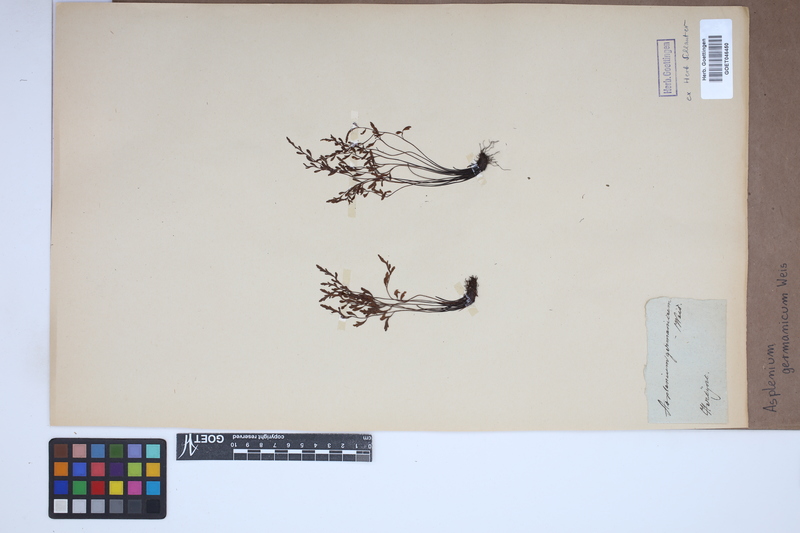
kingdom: Plantae
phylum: Tracheophyta
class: Polypodiopsida
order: Polypodiales
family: Aspleniaceae
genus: Asplenium
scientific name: Asplenium
